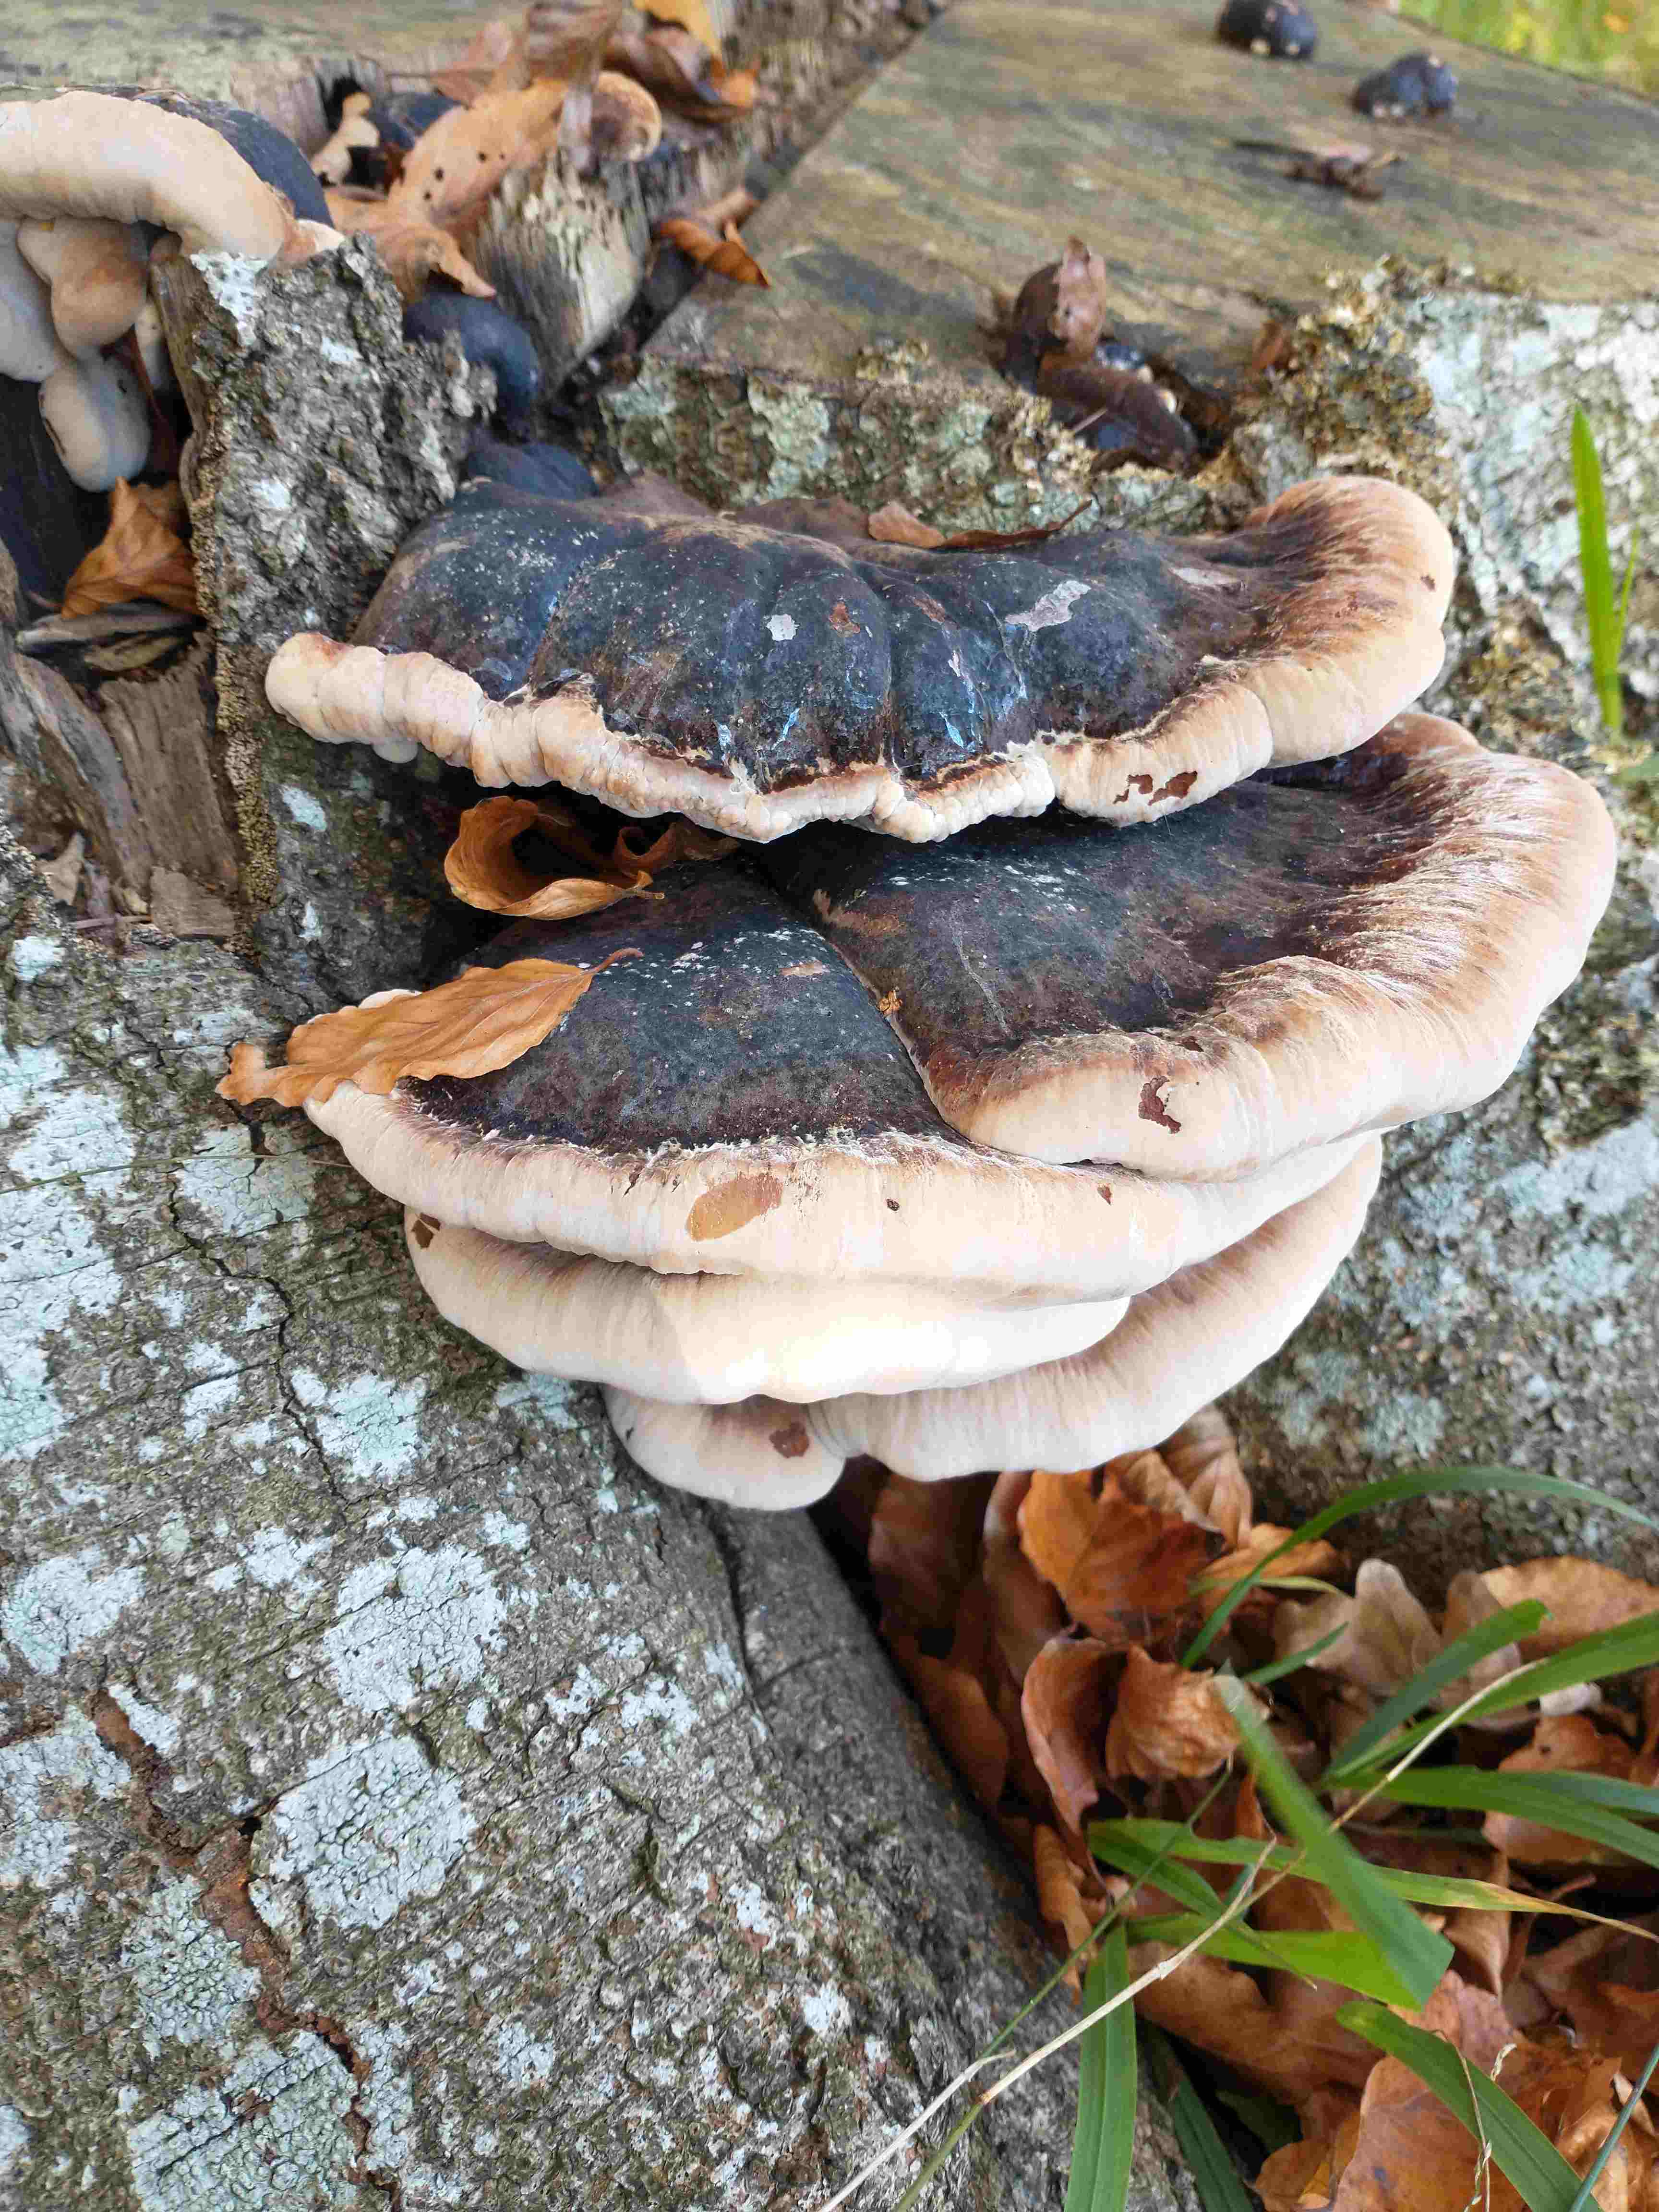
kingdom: Fungi
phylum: Basidiomycota
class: Agaricomycetes
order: Polyporales
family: Ischnodermataceae
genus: Ischnoderma
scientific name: Ischnoderma resinosum
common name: løv-tjæreporesvamp
